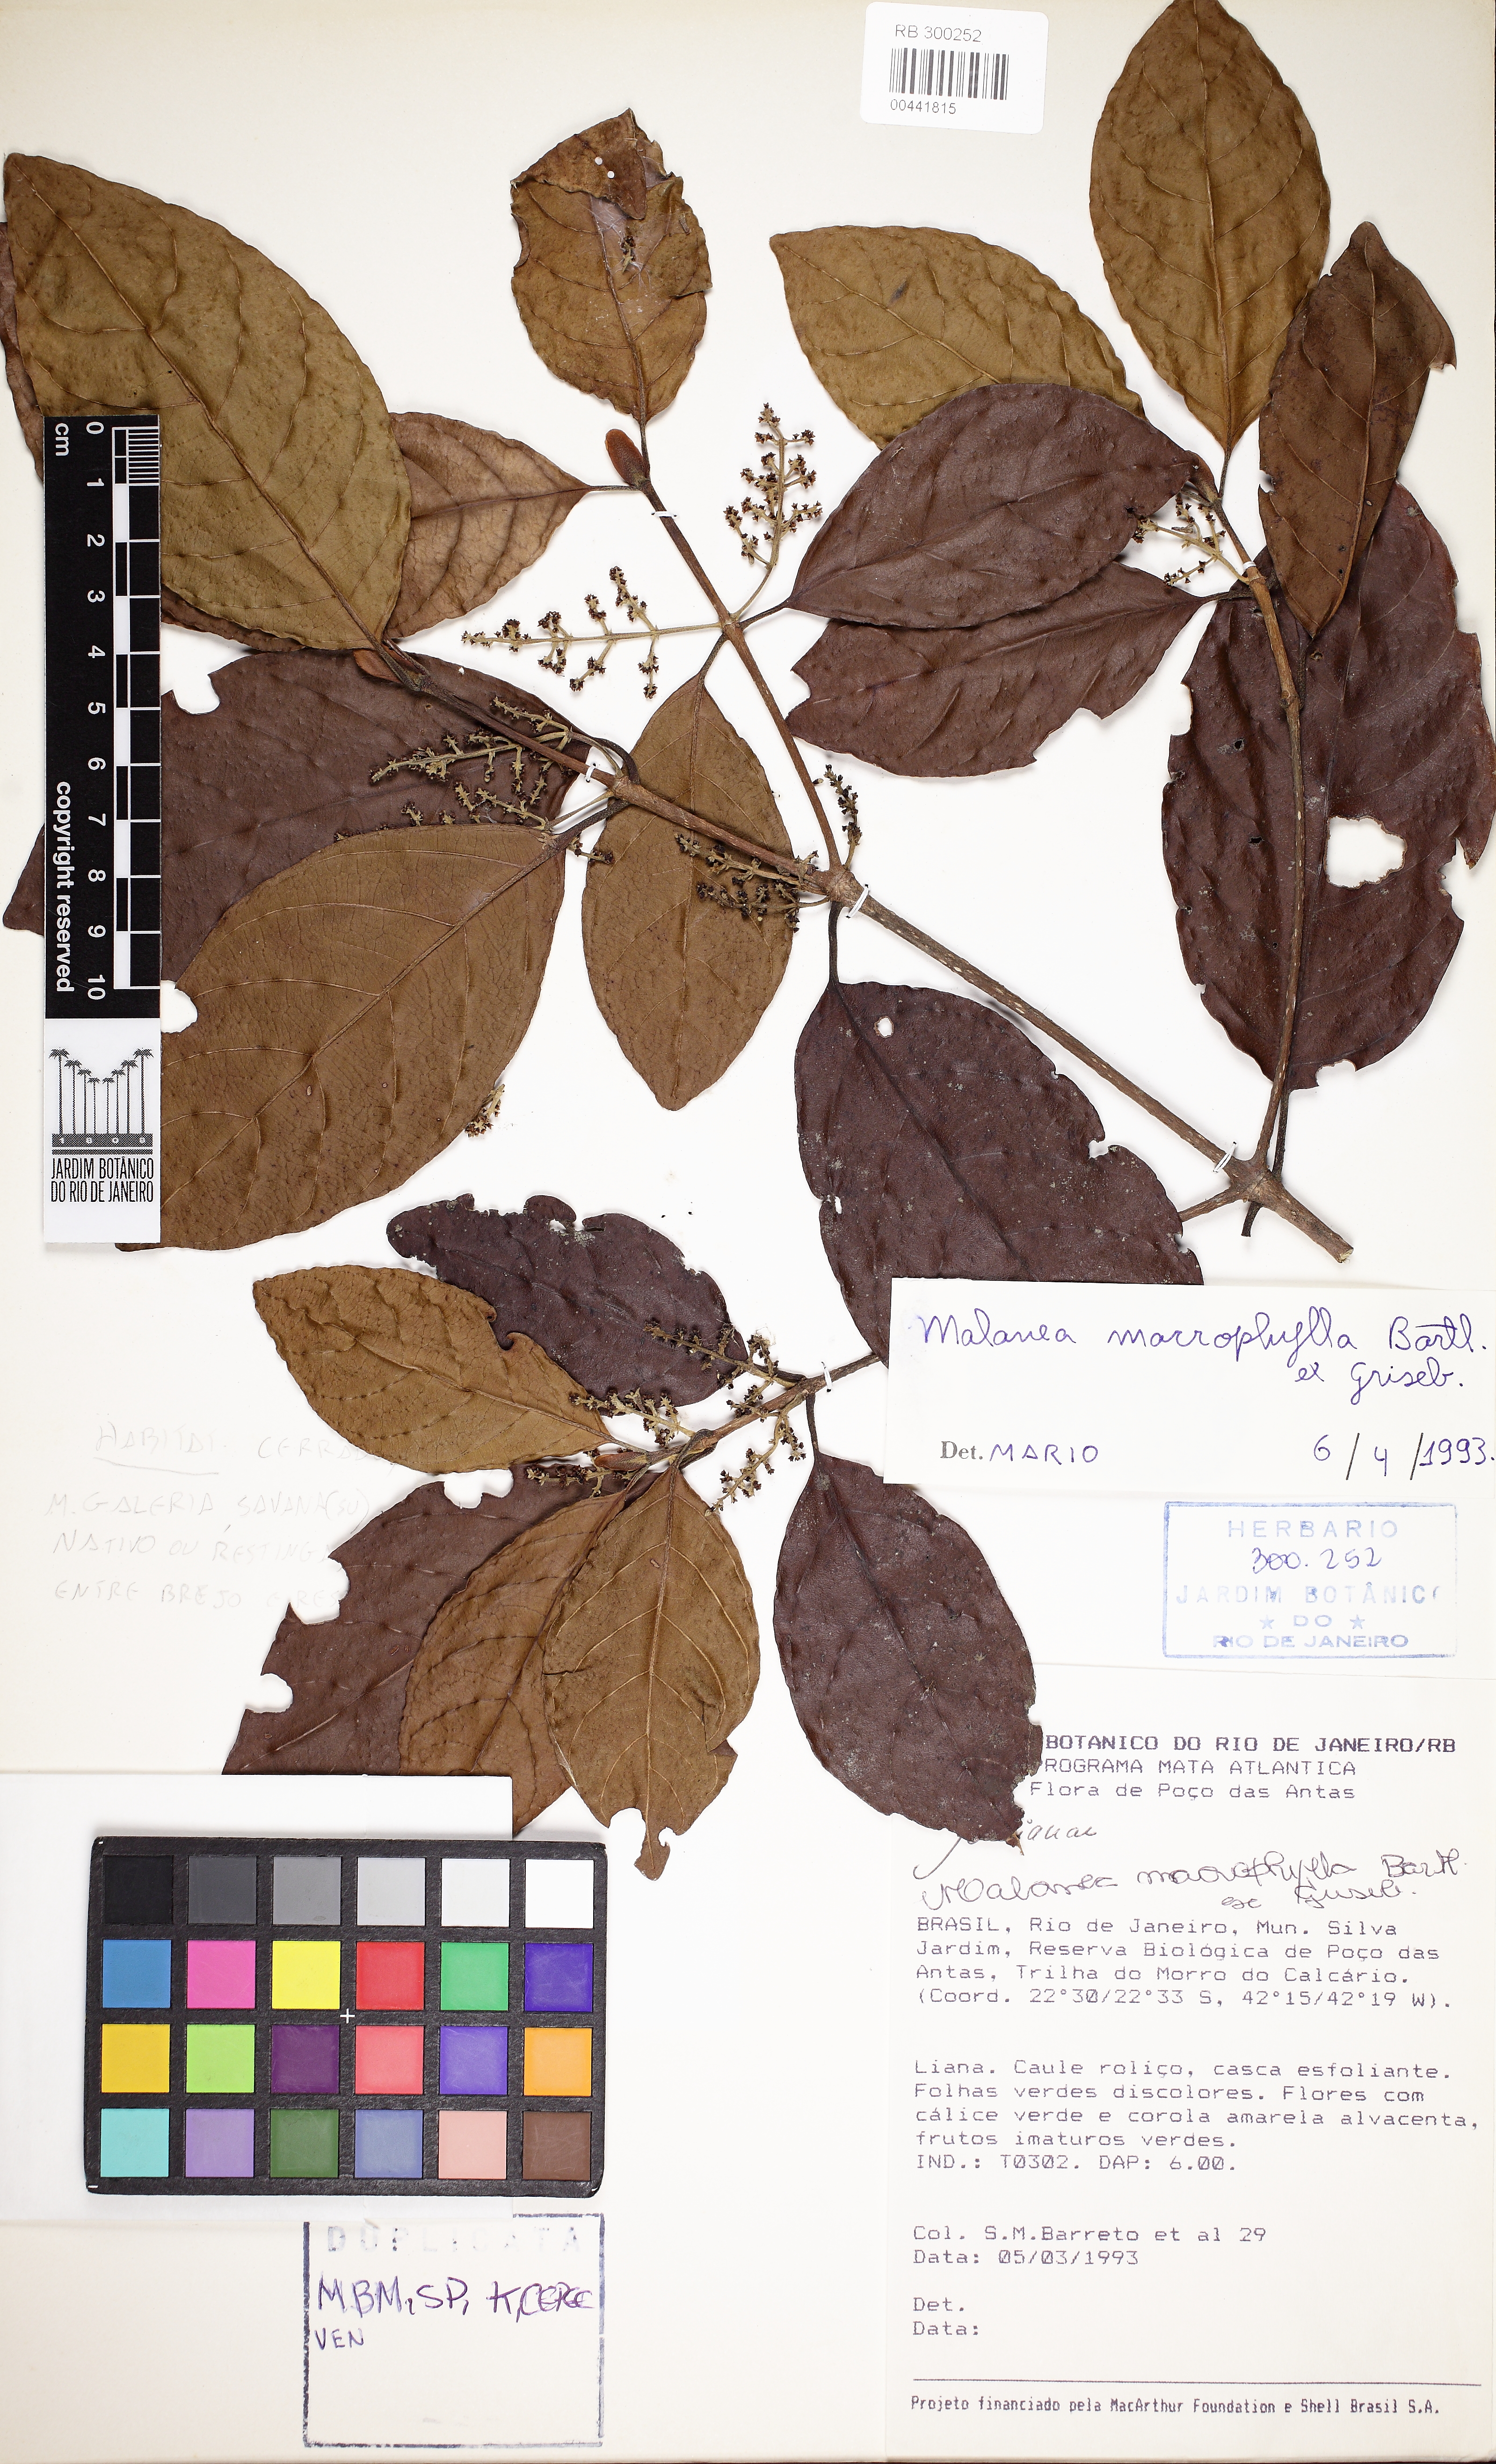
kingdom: Plantae
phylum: Tracheophyta
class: Magnoliopsida
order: Gentianales
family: Rubiaceae
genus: Malanea
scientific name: Malanea glabra
